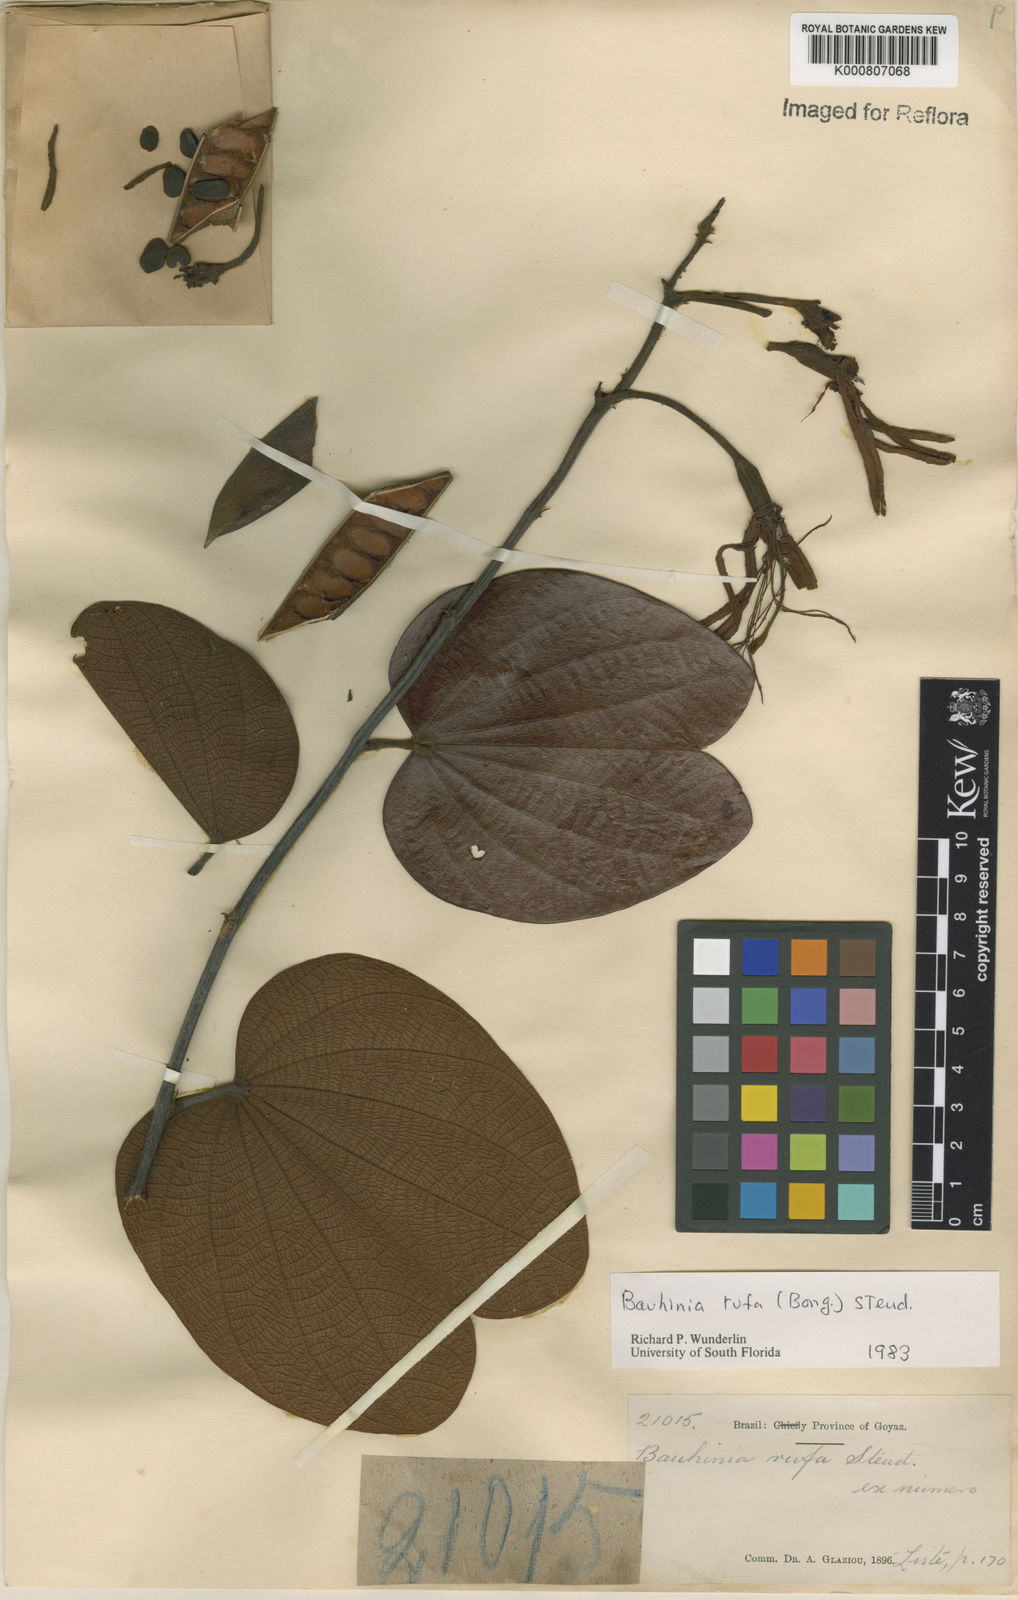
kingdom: Plantae
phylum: Tracheophyta
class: Magnoliopsida
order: Fabales
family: Fabaceae
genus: Bauhinia
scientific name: Bauhinia rufa
